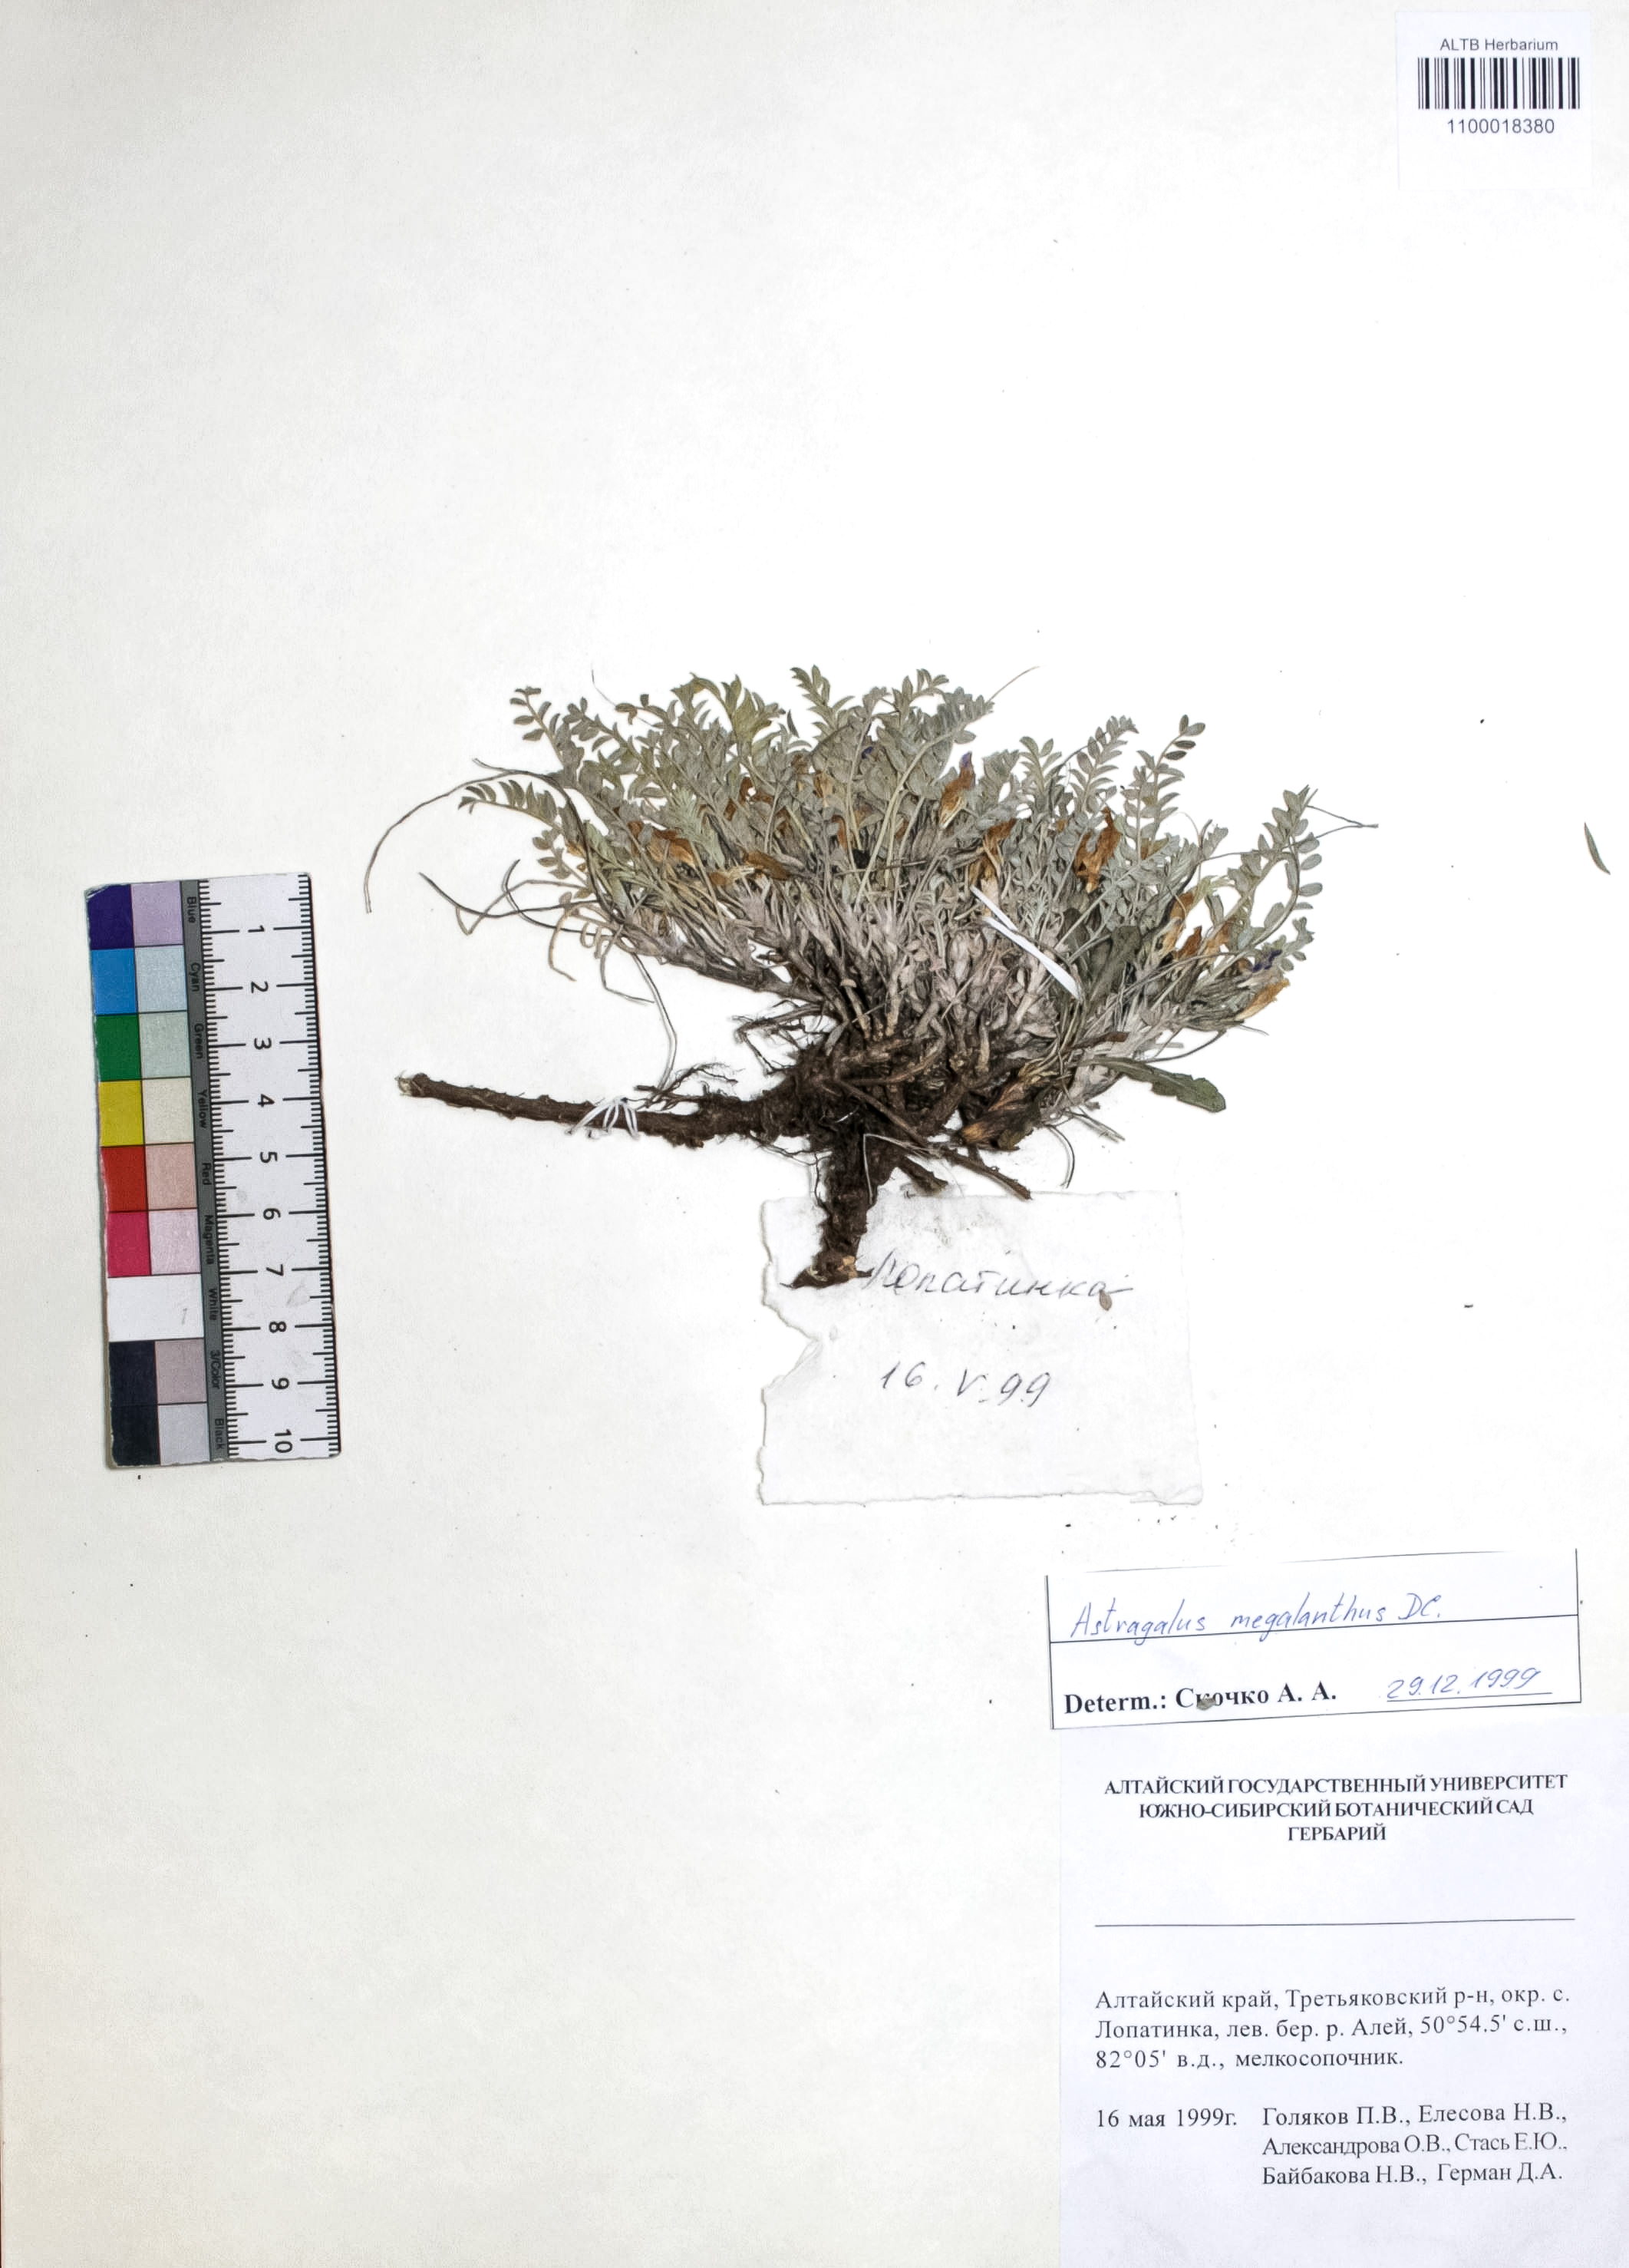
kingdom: Plantae
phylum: Tracheophyta
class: Magnoliopsida
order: Fabales
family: Fabaceae
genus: Astragalus
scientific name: Astragalus leptostachys
